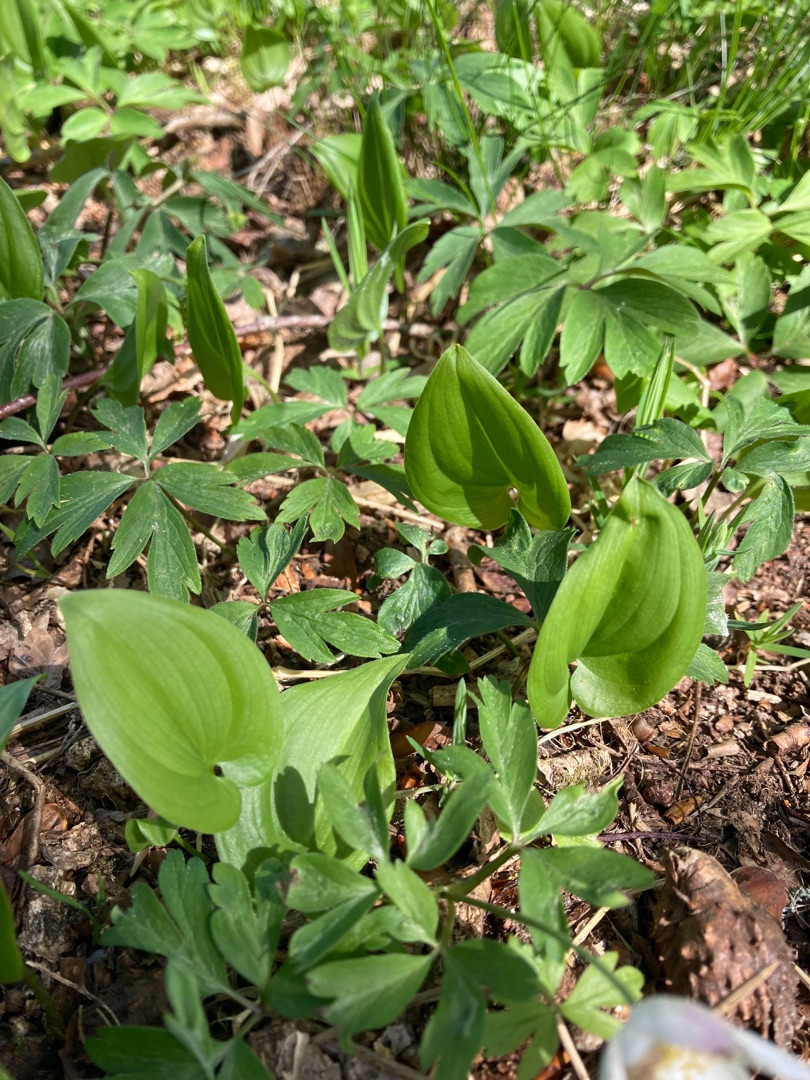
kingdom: Plantae
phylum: Tracheophyta
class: Liliopsida
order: Asparagales
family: Asparagaceae
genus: Maianthemum
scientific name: Maianthemum bifolium
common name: Majblomst
